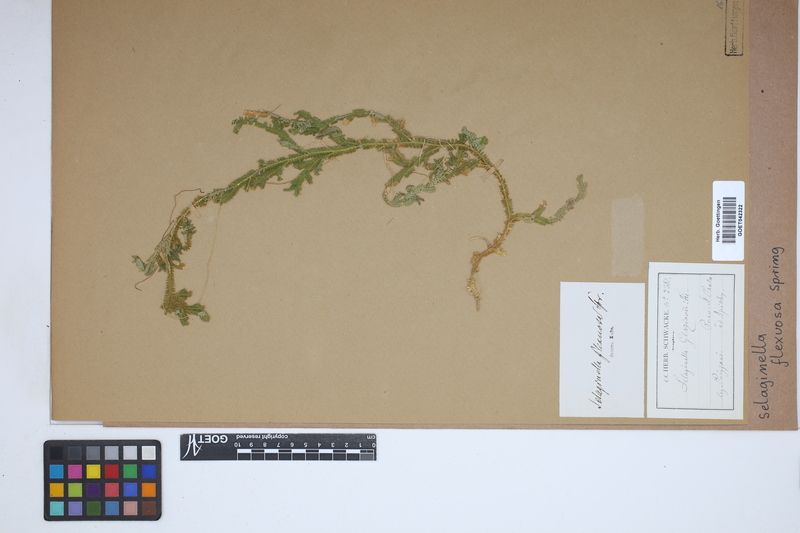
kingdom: Plantae
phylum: Tracheophyta
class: Lycopodiopsida
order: Selaginellales
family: Selaginellaceae
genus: Selaginella
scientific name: Selaginella flexuosa
